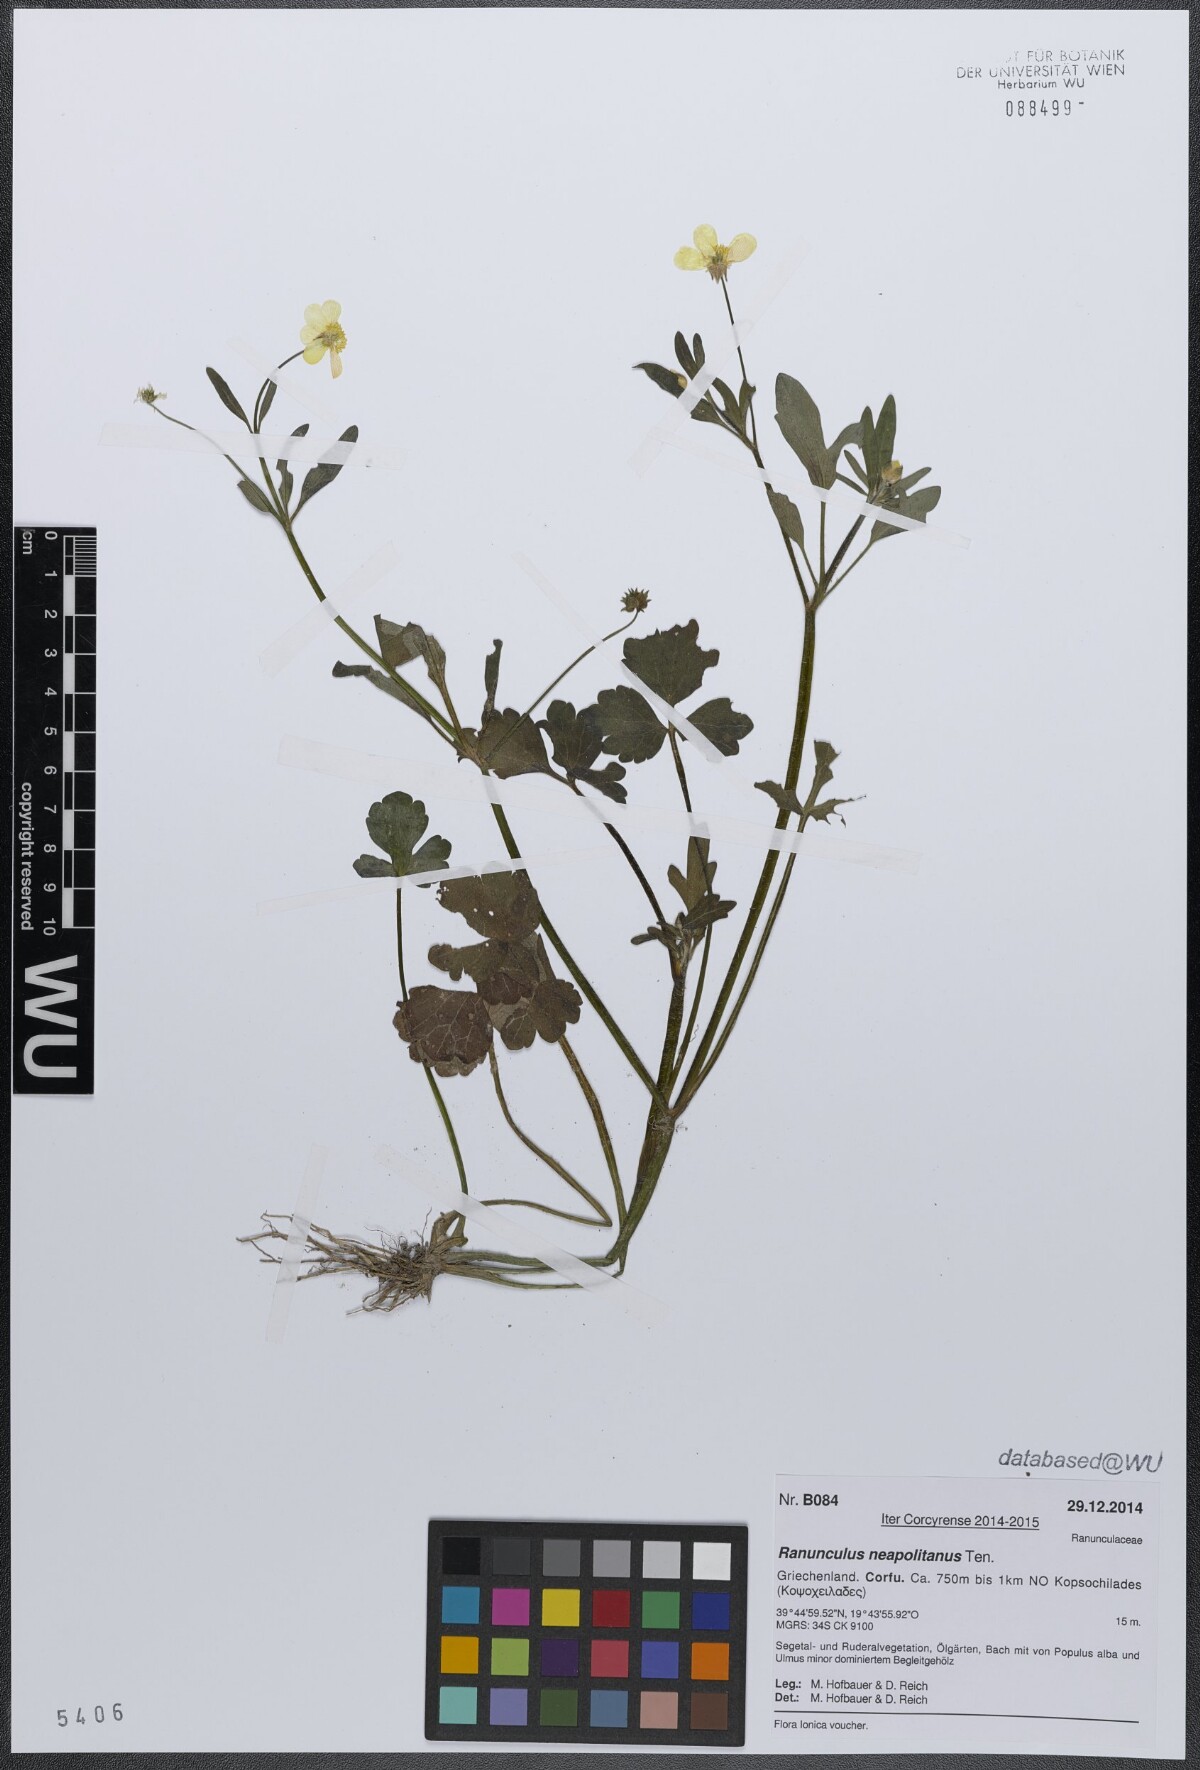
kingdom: Plantae
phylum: Tracheophyta
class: Magnoliopsida
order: Ranunculales
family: Ranunculaceae
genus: Ranunculus
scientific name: Ranunculus neapolitanus
